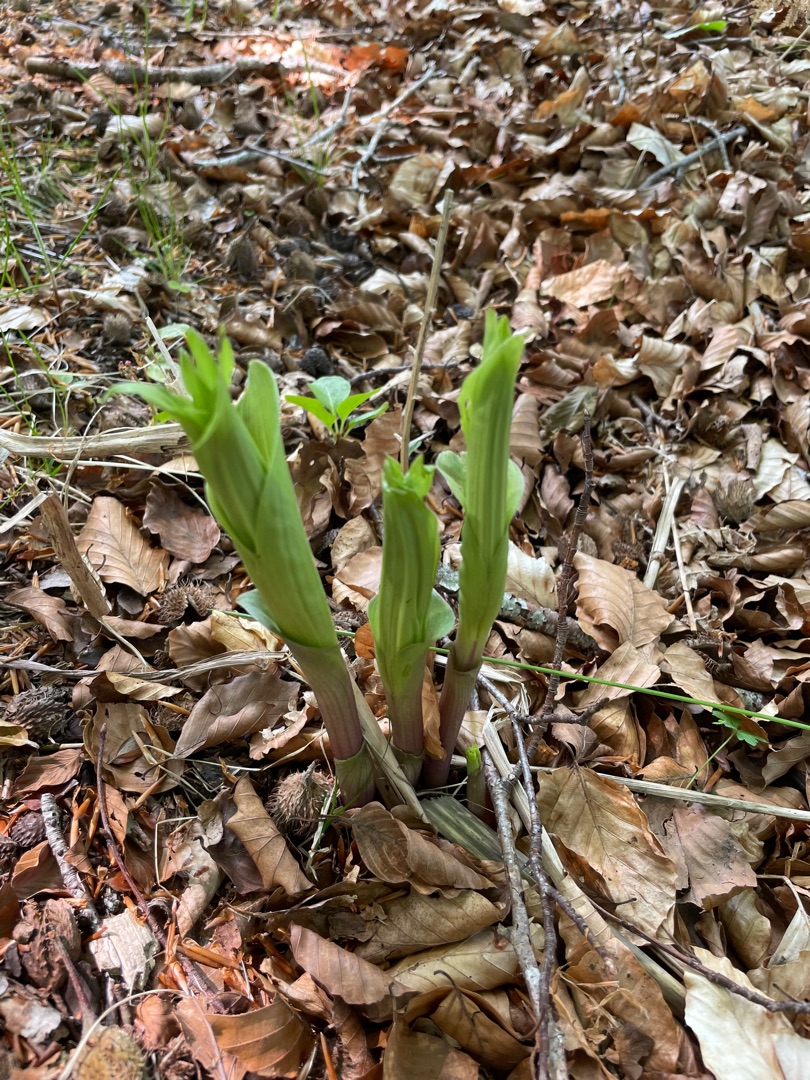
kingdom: Plantae
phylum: Tracheophyta
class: Liliopsida
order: Asparagales
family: Orchidaceae
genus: Epipactis
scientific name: Epipactis helleborine
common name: Skov-hullæbe
